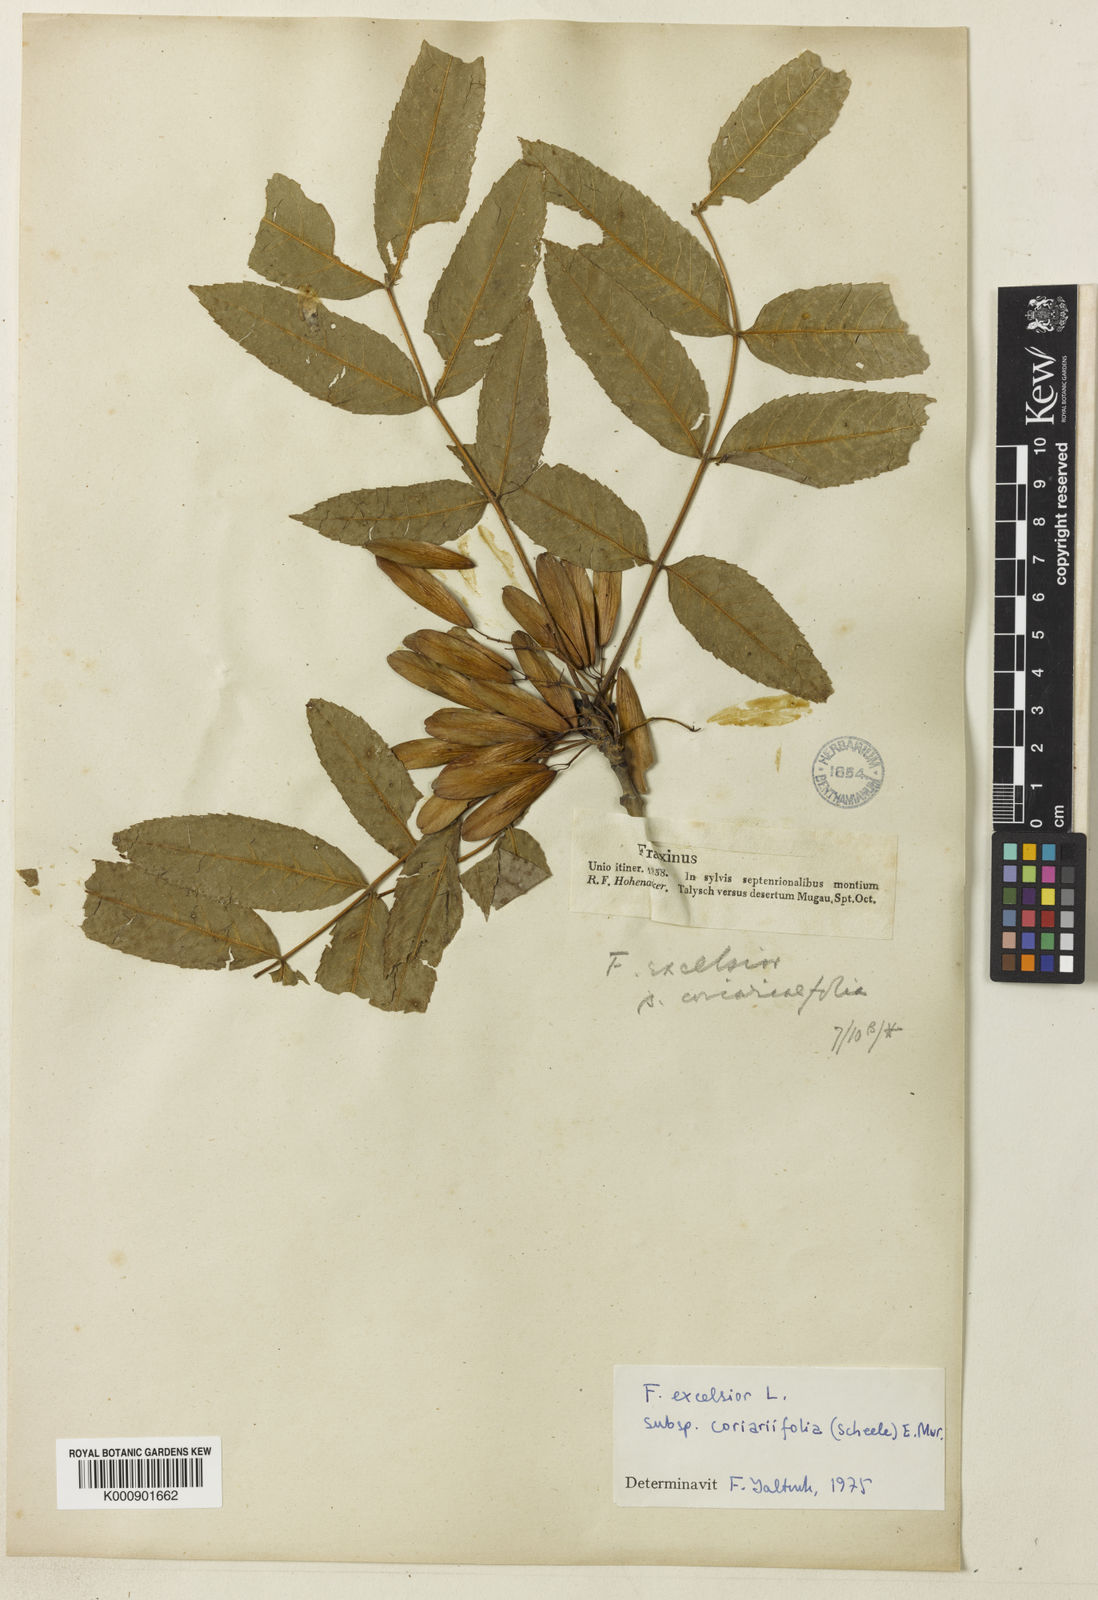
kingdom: Plantae
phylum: Tracheophyta
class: Magnoliopsida
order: Lamiales
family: Oleaceae
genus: Fraxinus
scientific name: Fraxinus excelsior
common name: European ash
